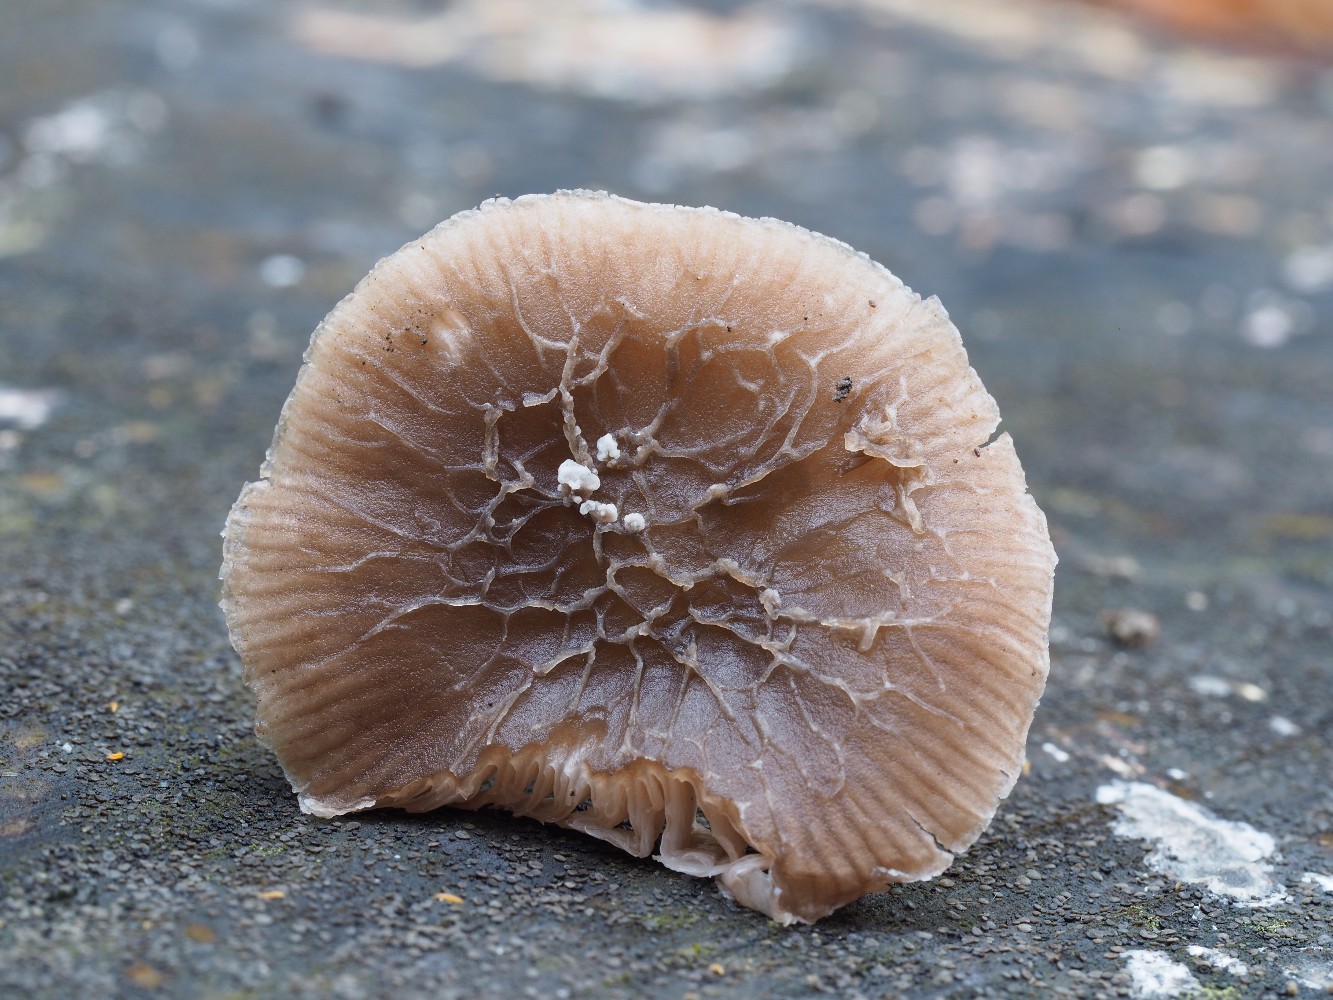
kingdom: Fungi
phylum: Basidiomycota
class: Agaricomycetes
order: Agaricales
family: Pluteaceae
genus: Pluteus
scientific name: Pluteus
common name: gråstokket skærmhat
